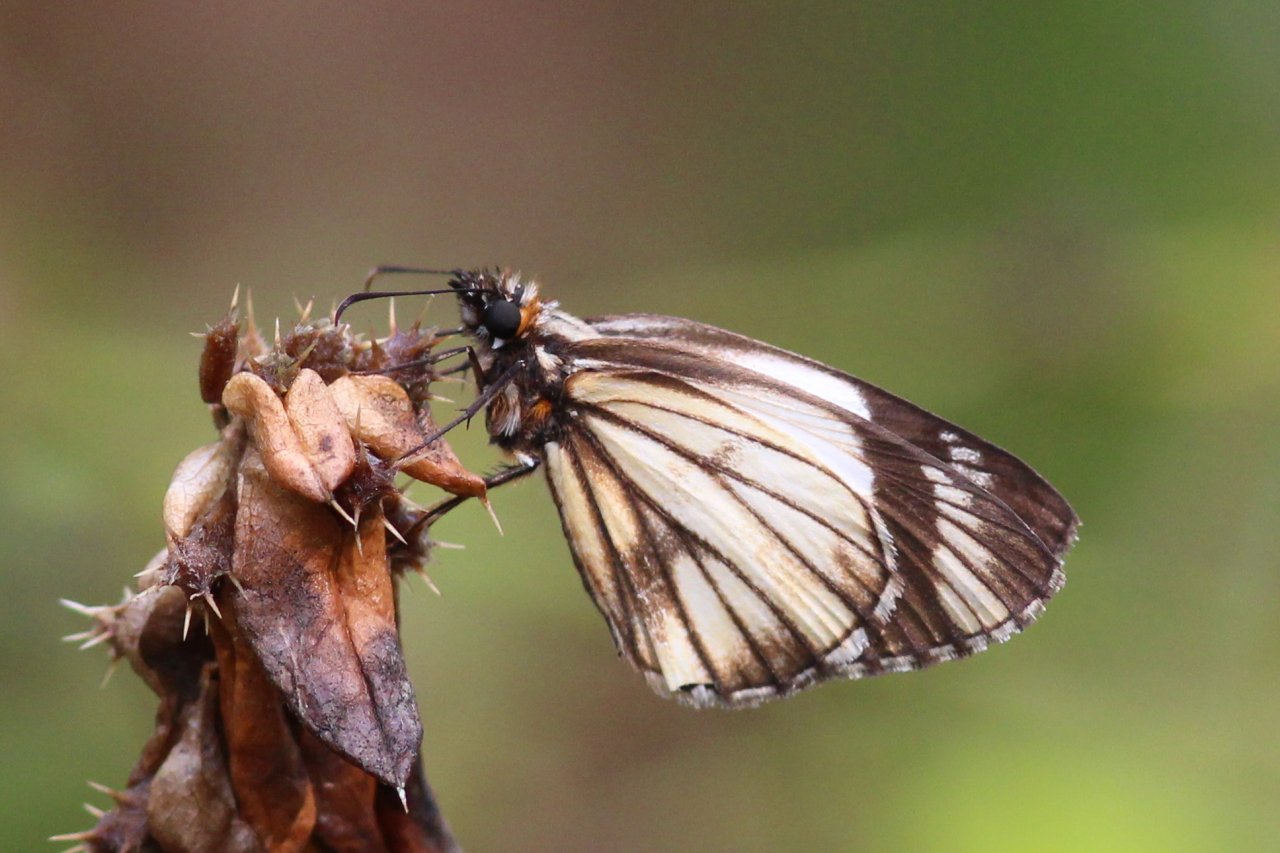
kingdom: Animalia
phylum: Arthropoda
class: Insecta
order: Lepidoptera
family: Hesperiidae
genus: Heliopetes
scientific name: Heliopetes alana
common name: Alana White-Skipper
